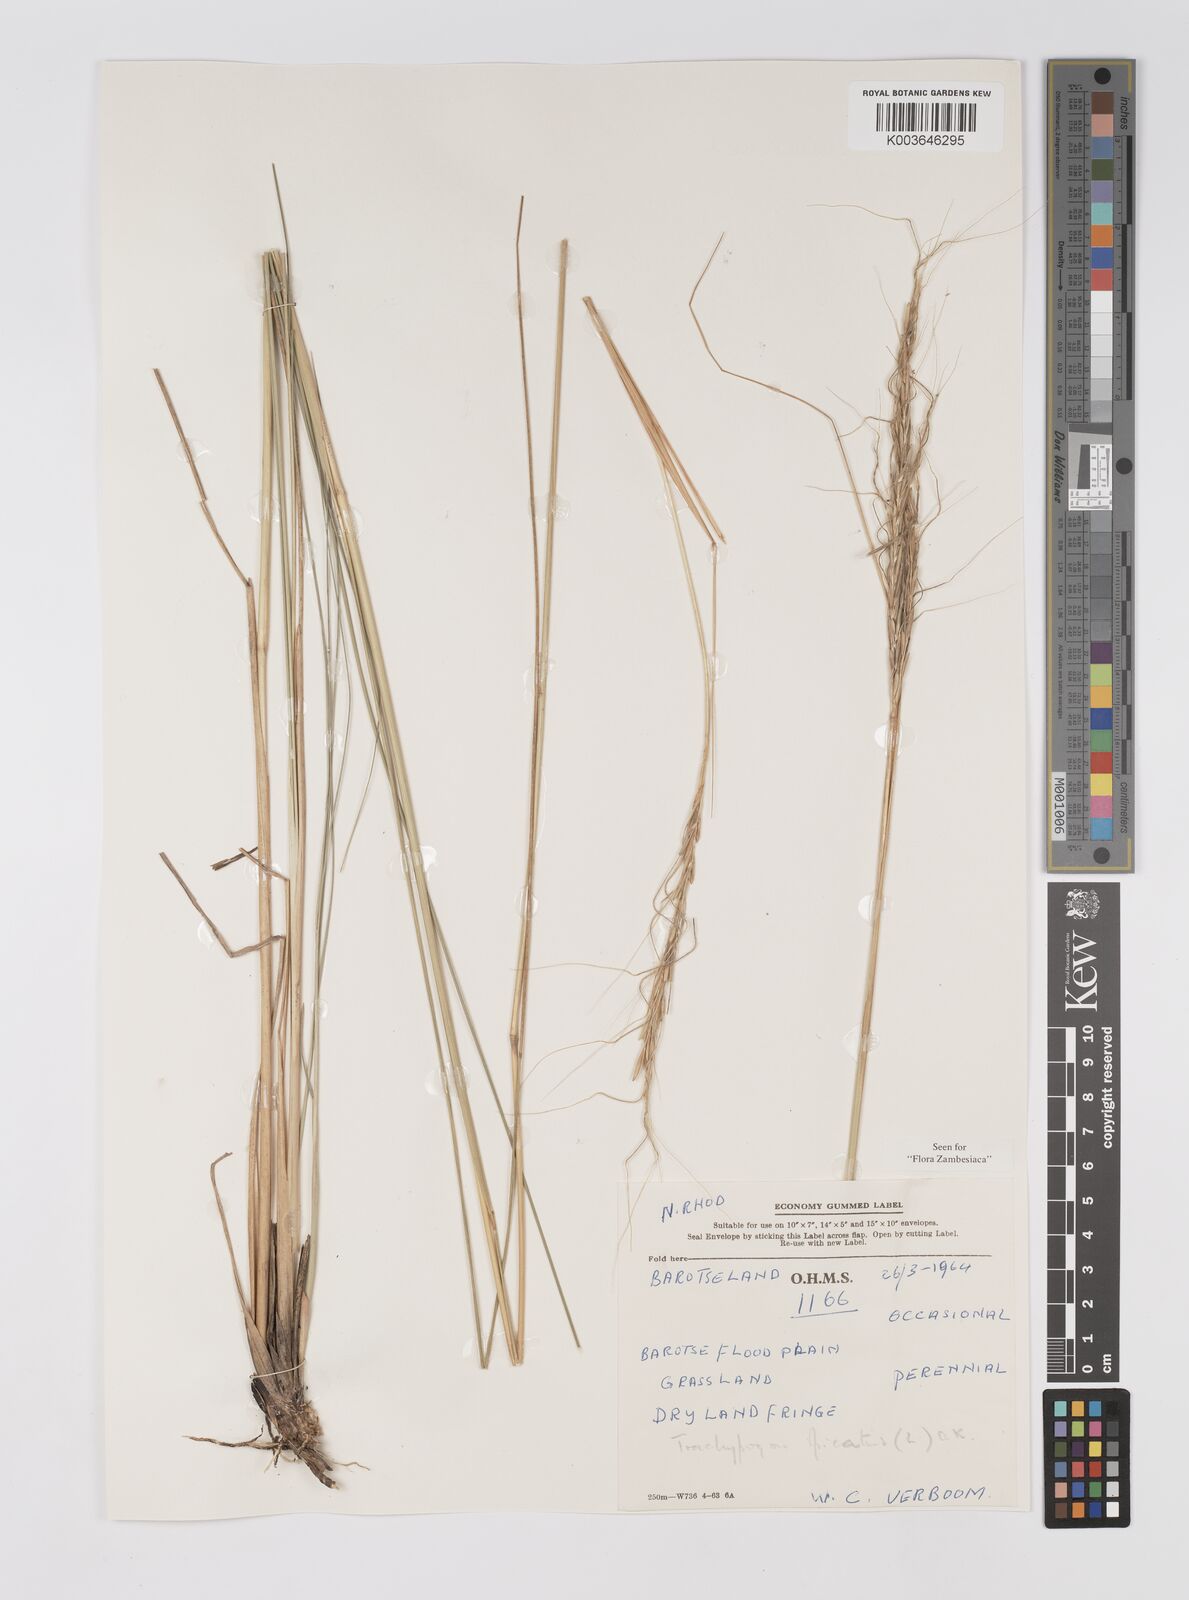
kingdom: Plantae
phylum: Tracheophyta
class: Liliopsida
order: Poales
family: Poaceae
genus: Trachypogon
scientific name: Trachypogon spicatus
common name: Crinkle-awn
